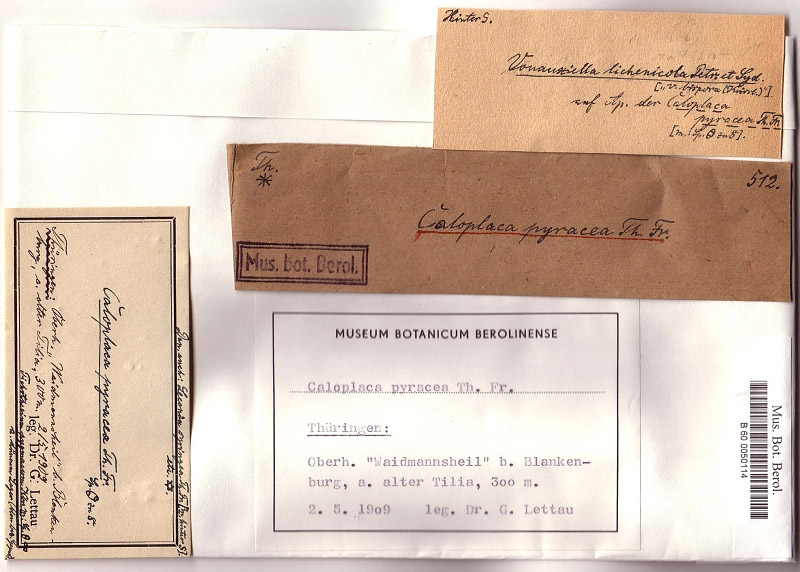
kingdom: Fungi
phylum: Ascomycota
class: Eurotiomycetes
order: Verrucariales
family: Verrucariaceae
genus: Muellerella
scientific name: Muellerella pygmaea
